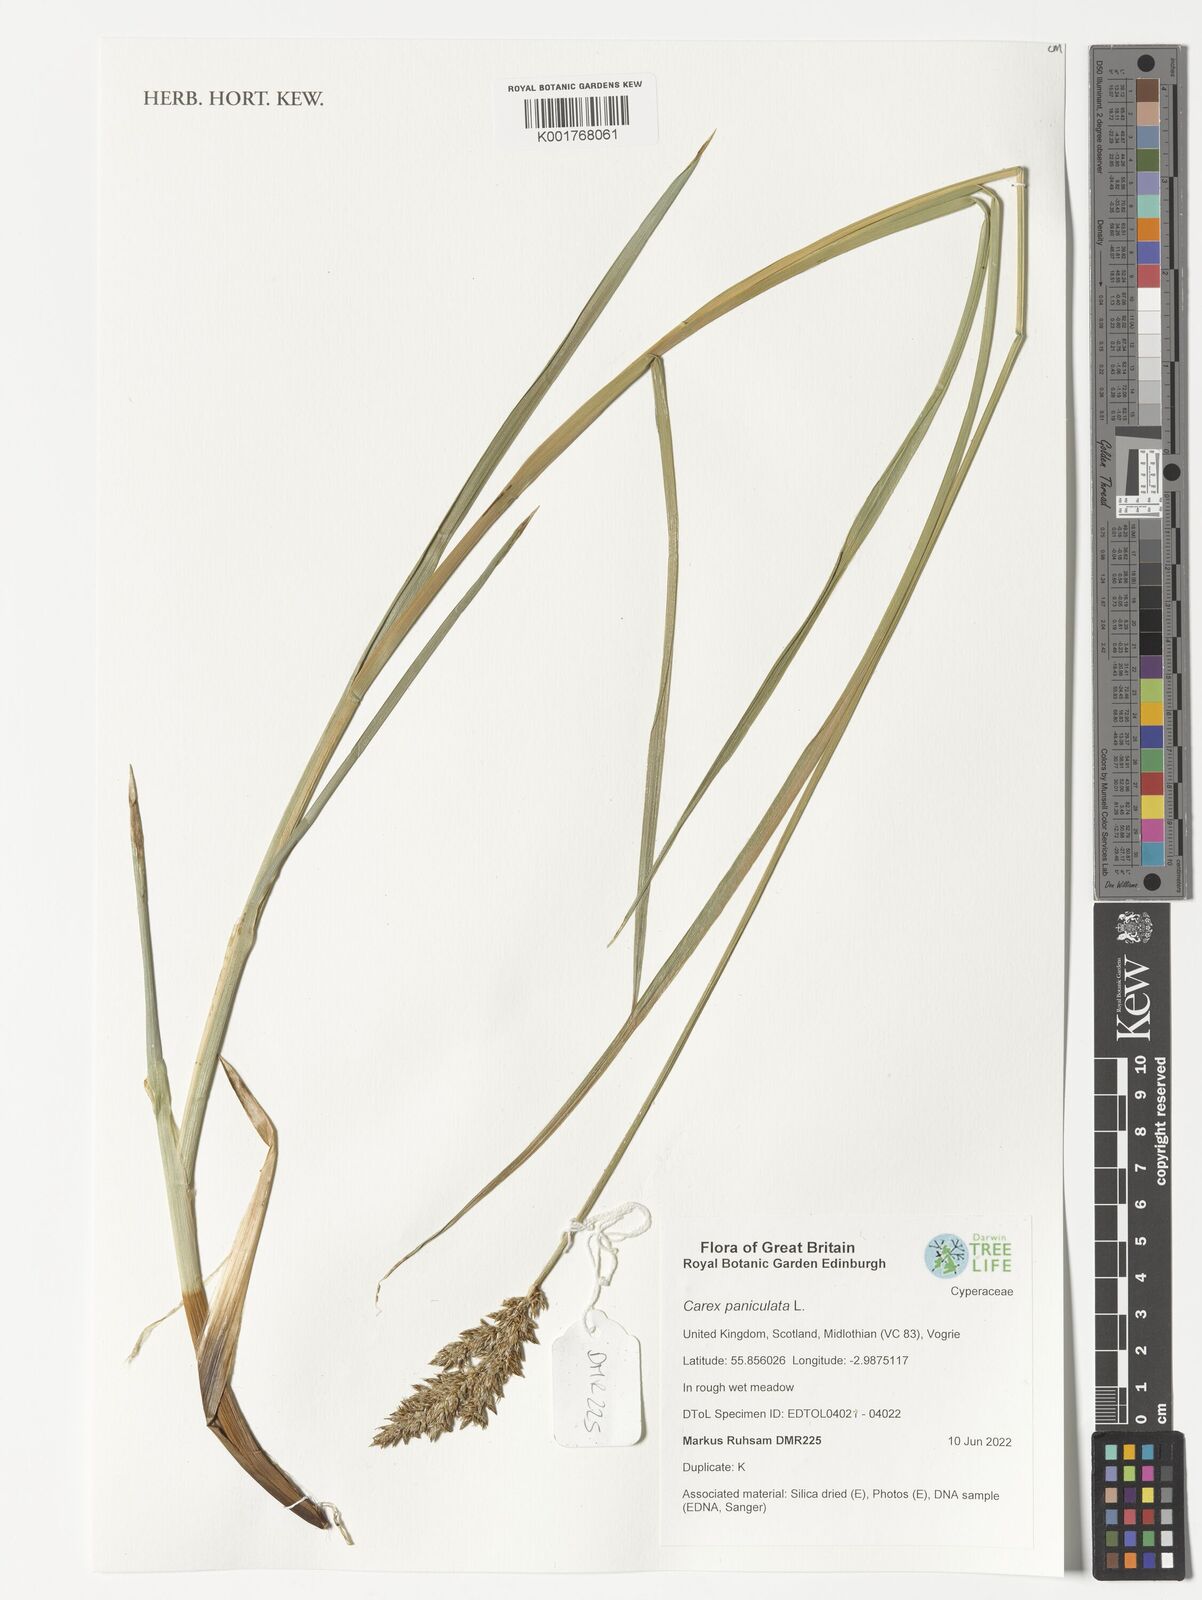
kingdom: Plantae
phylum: Tracheophyta
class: Liliopsida
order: Poales
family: Cyperaceae
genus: Carex
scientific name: Carex paniculata
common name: Greater tussock-sedge
